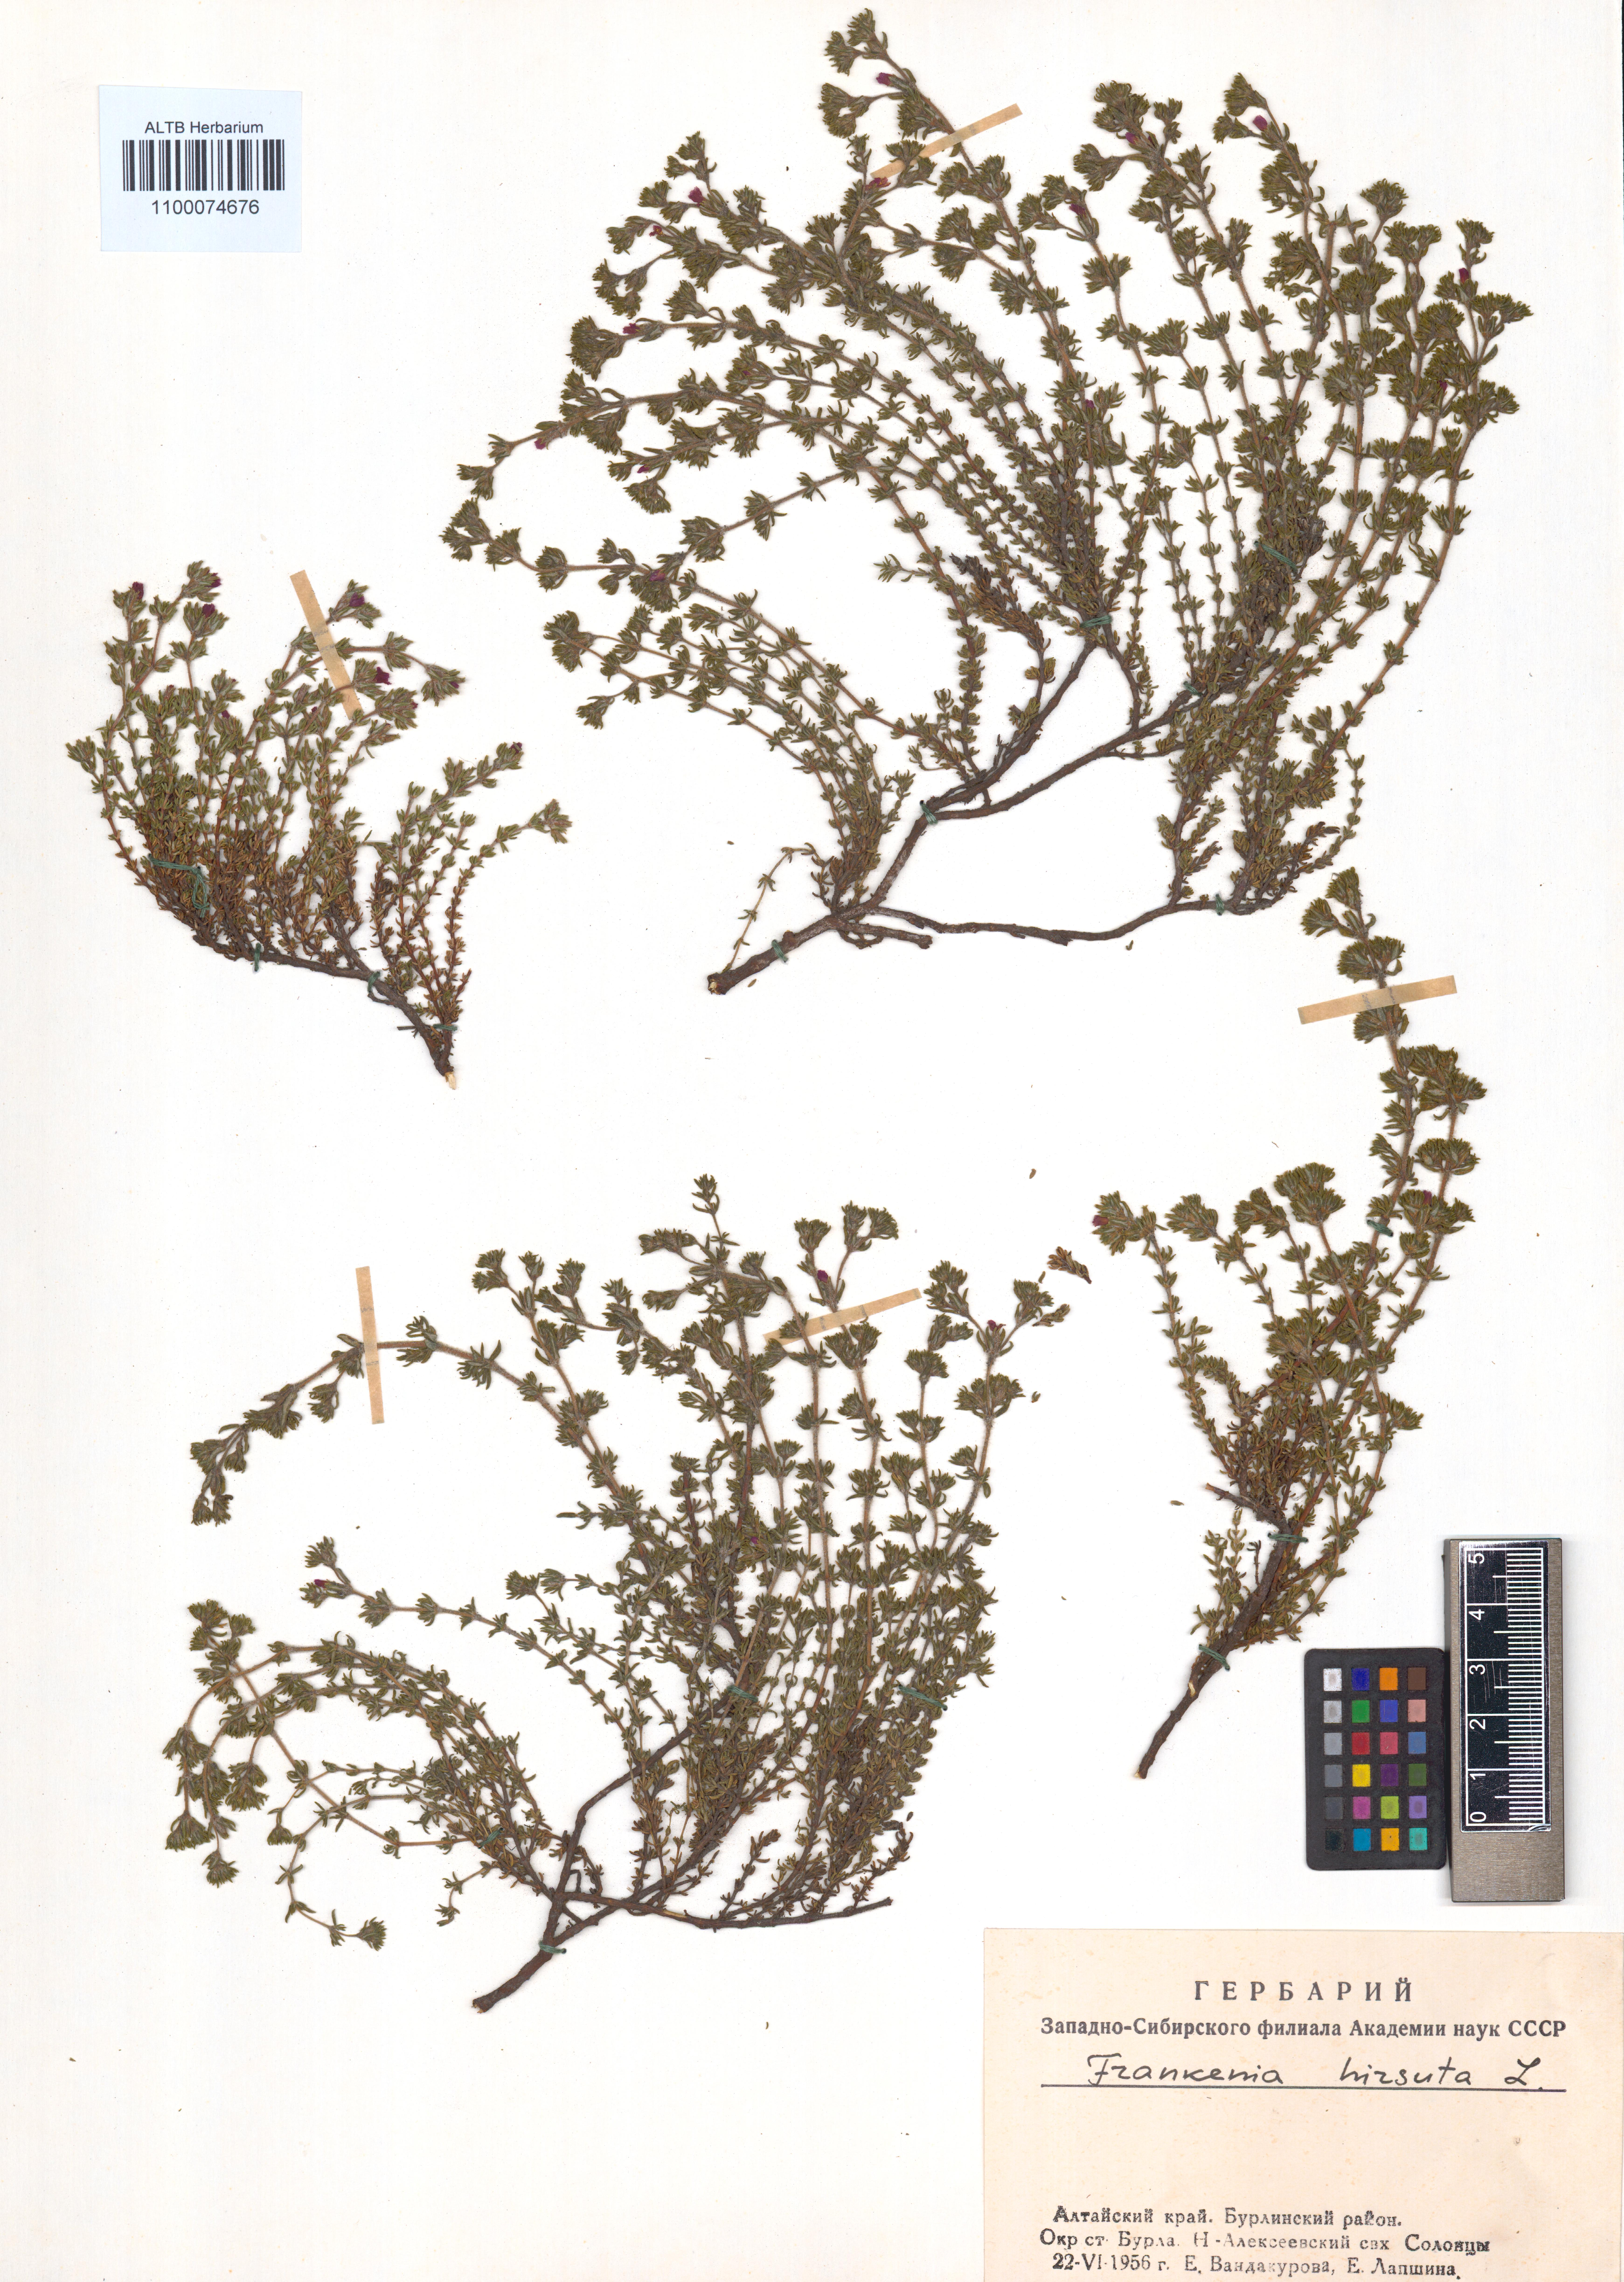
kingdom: Plantae
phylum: Tracheophyta
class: Magnoliopsida
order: Caryophyllales
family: Frankeniaceae
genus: Frankenia
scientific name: Frankenia hirsuta
